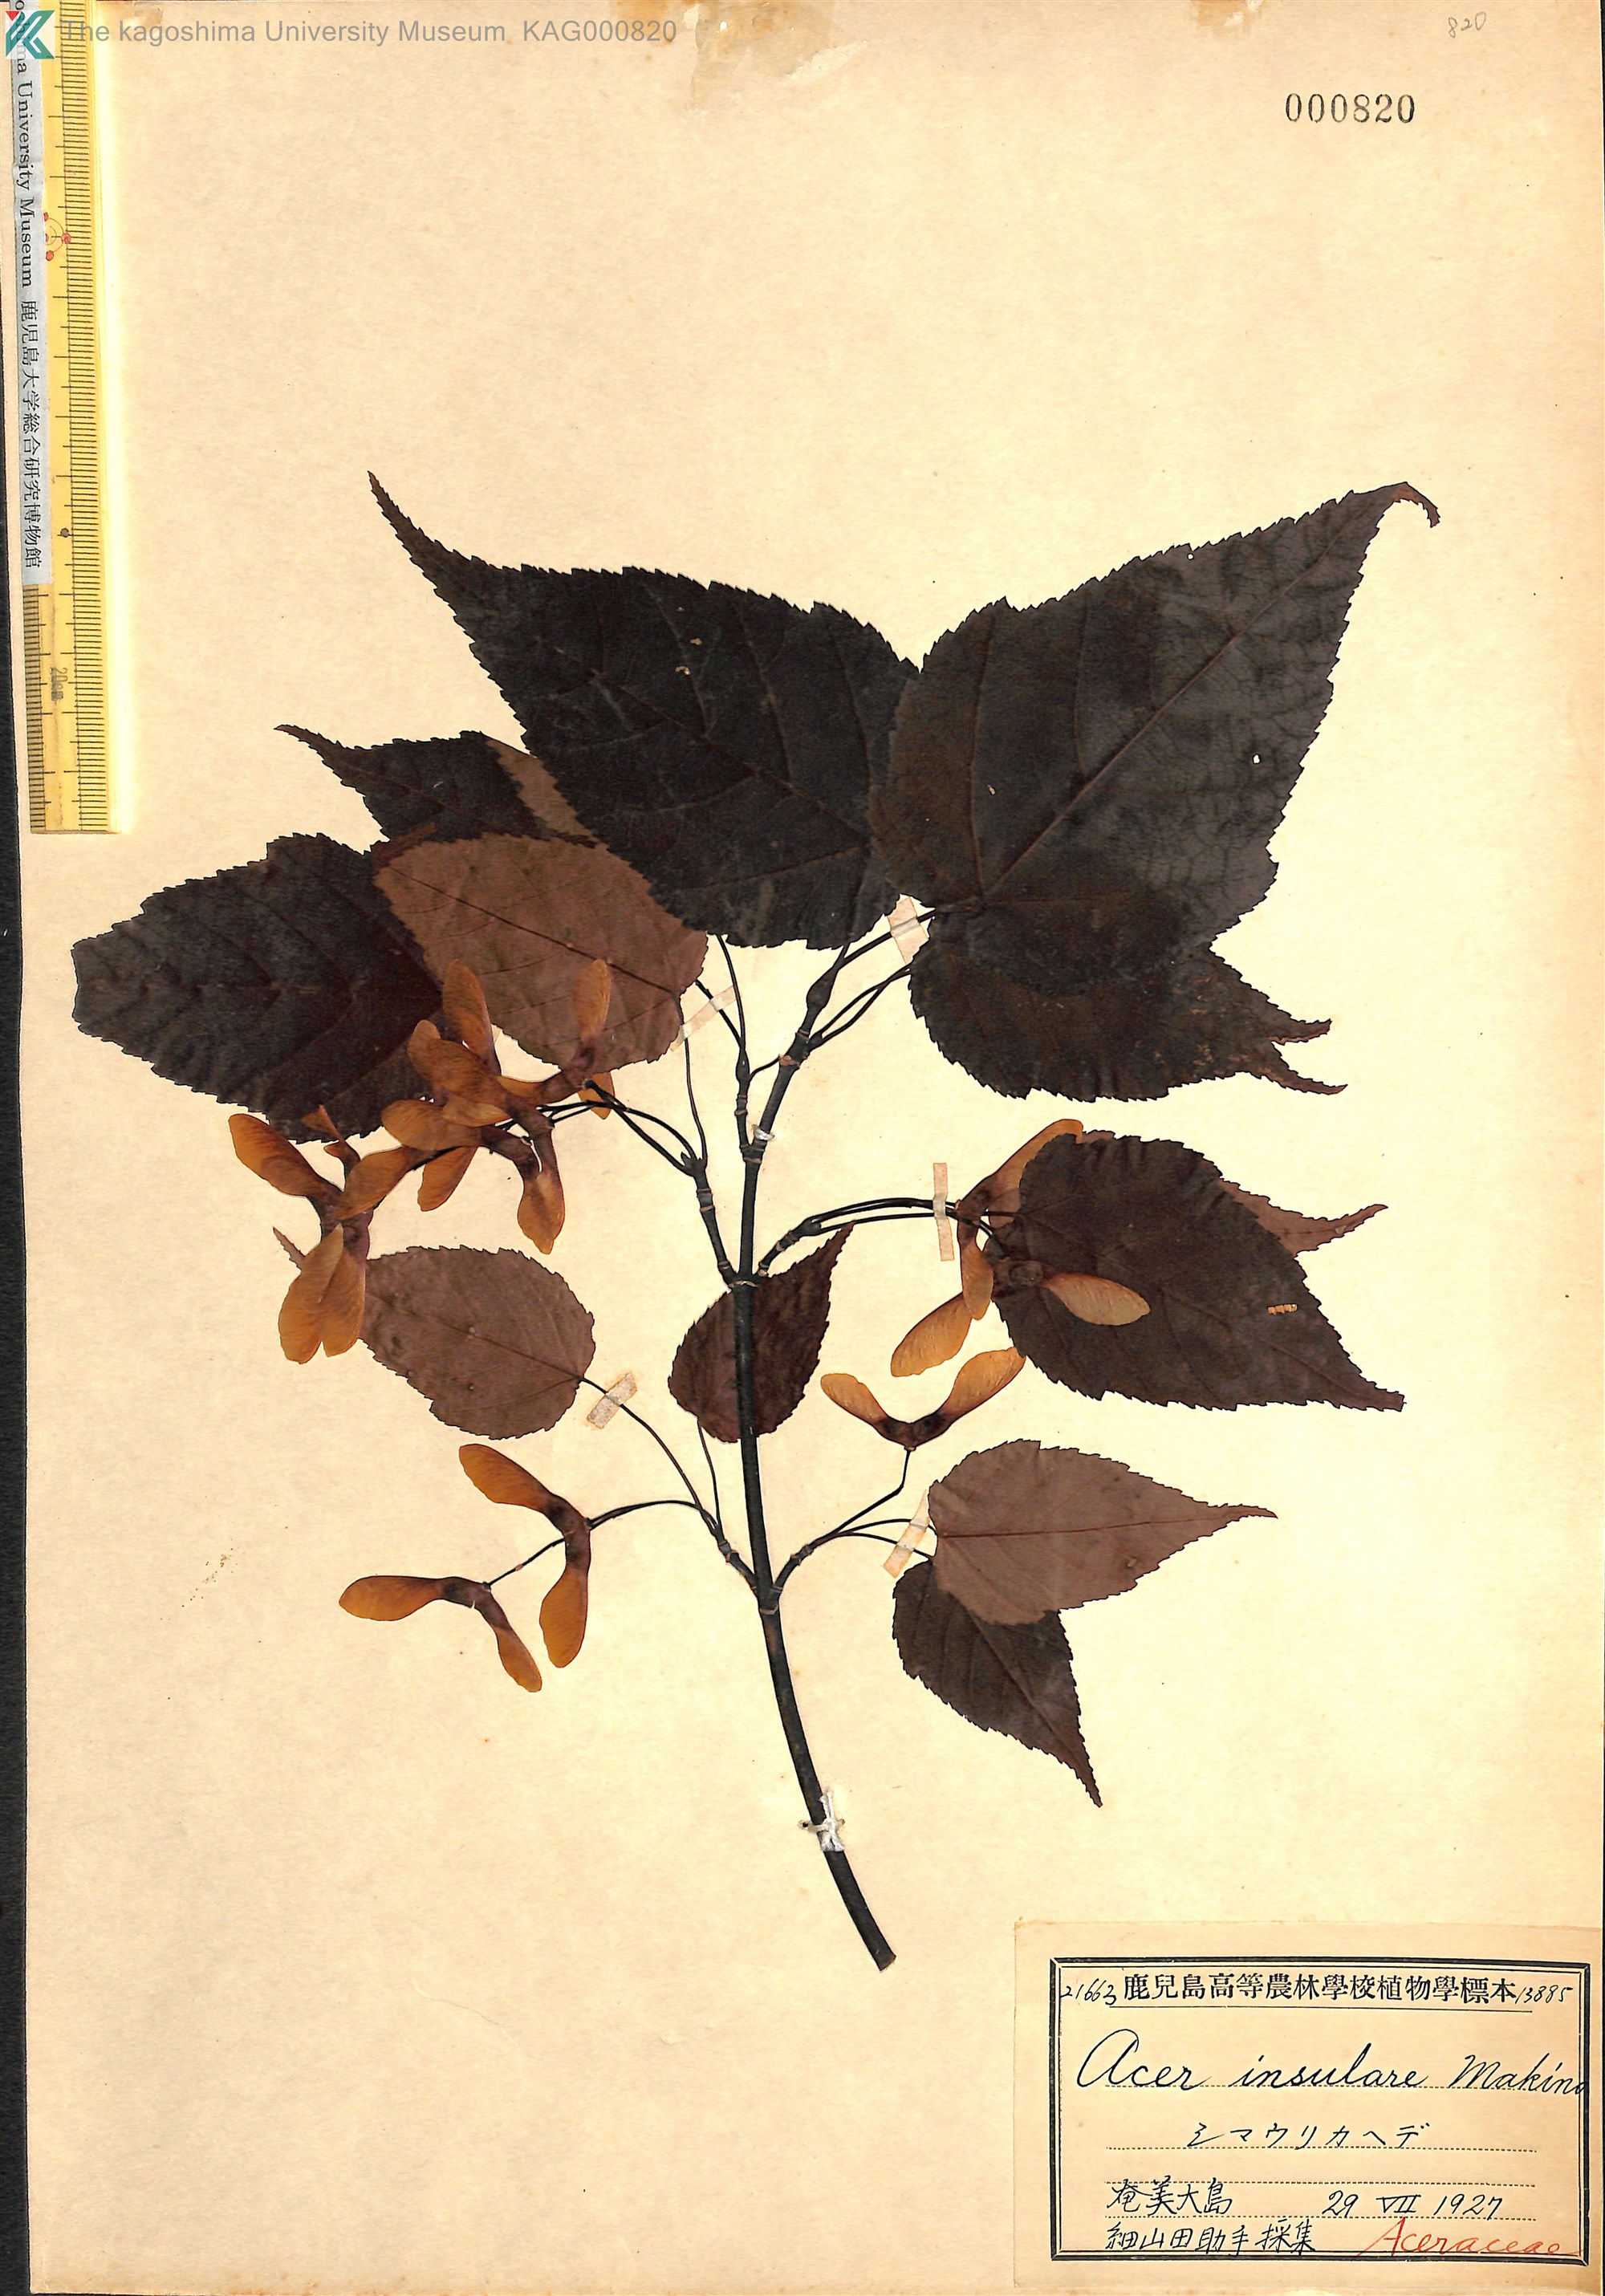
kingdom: Plantae
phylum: Tracheophyta
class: Magnoliopsida
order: Sapindales
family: Sapindaceae
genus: Acer
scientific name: Acer caudatifolium
